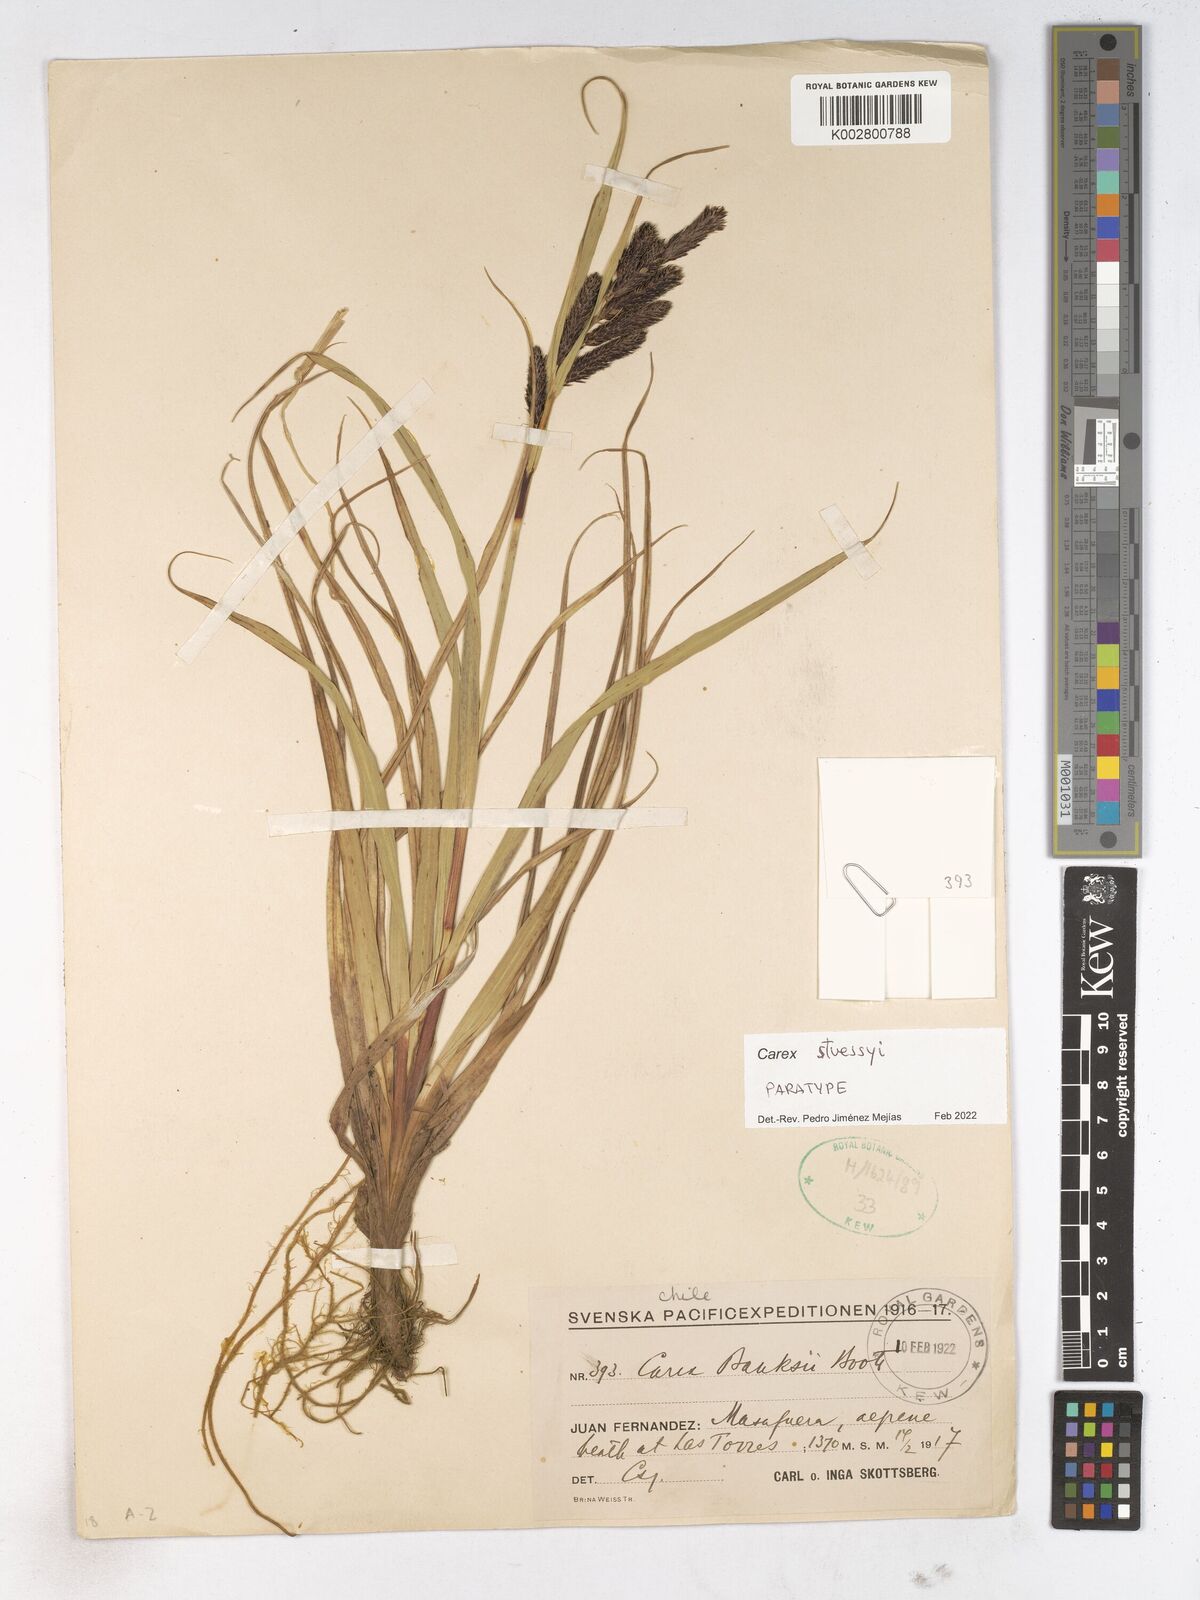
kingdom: Plantae
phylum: Tracheophyta
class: Liliopsida
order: Poales
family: Cyperaceae
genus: Carex
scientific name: Carex
